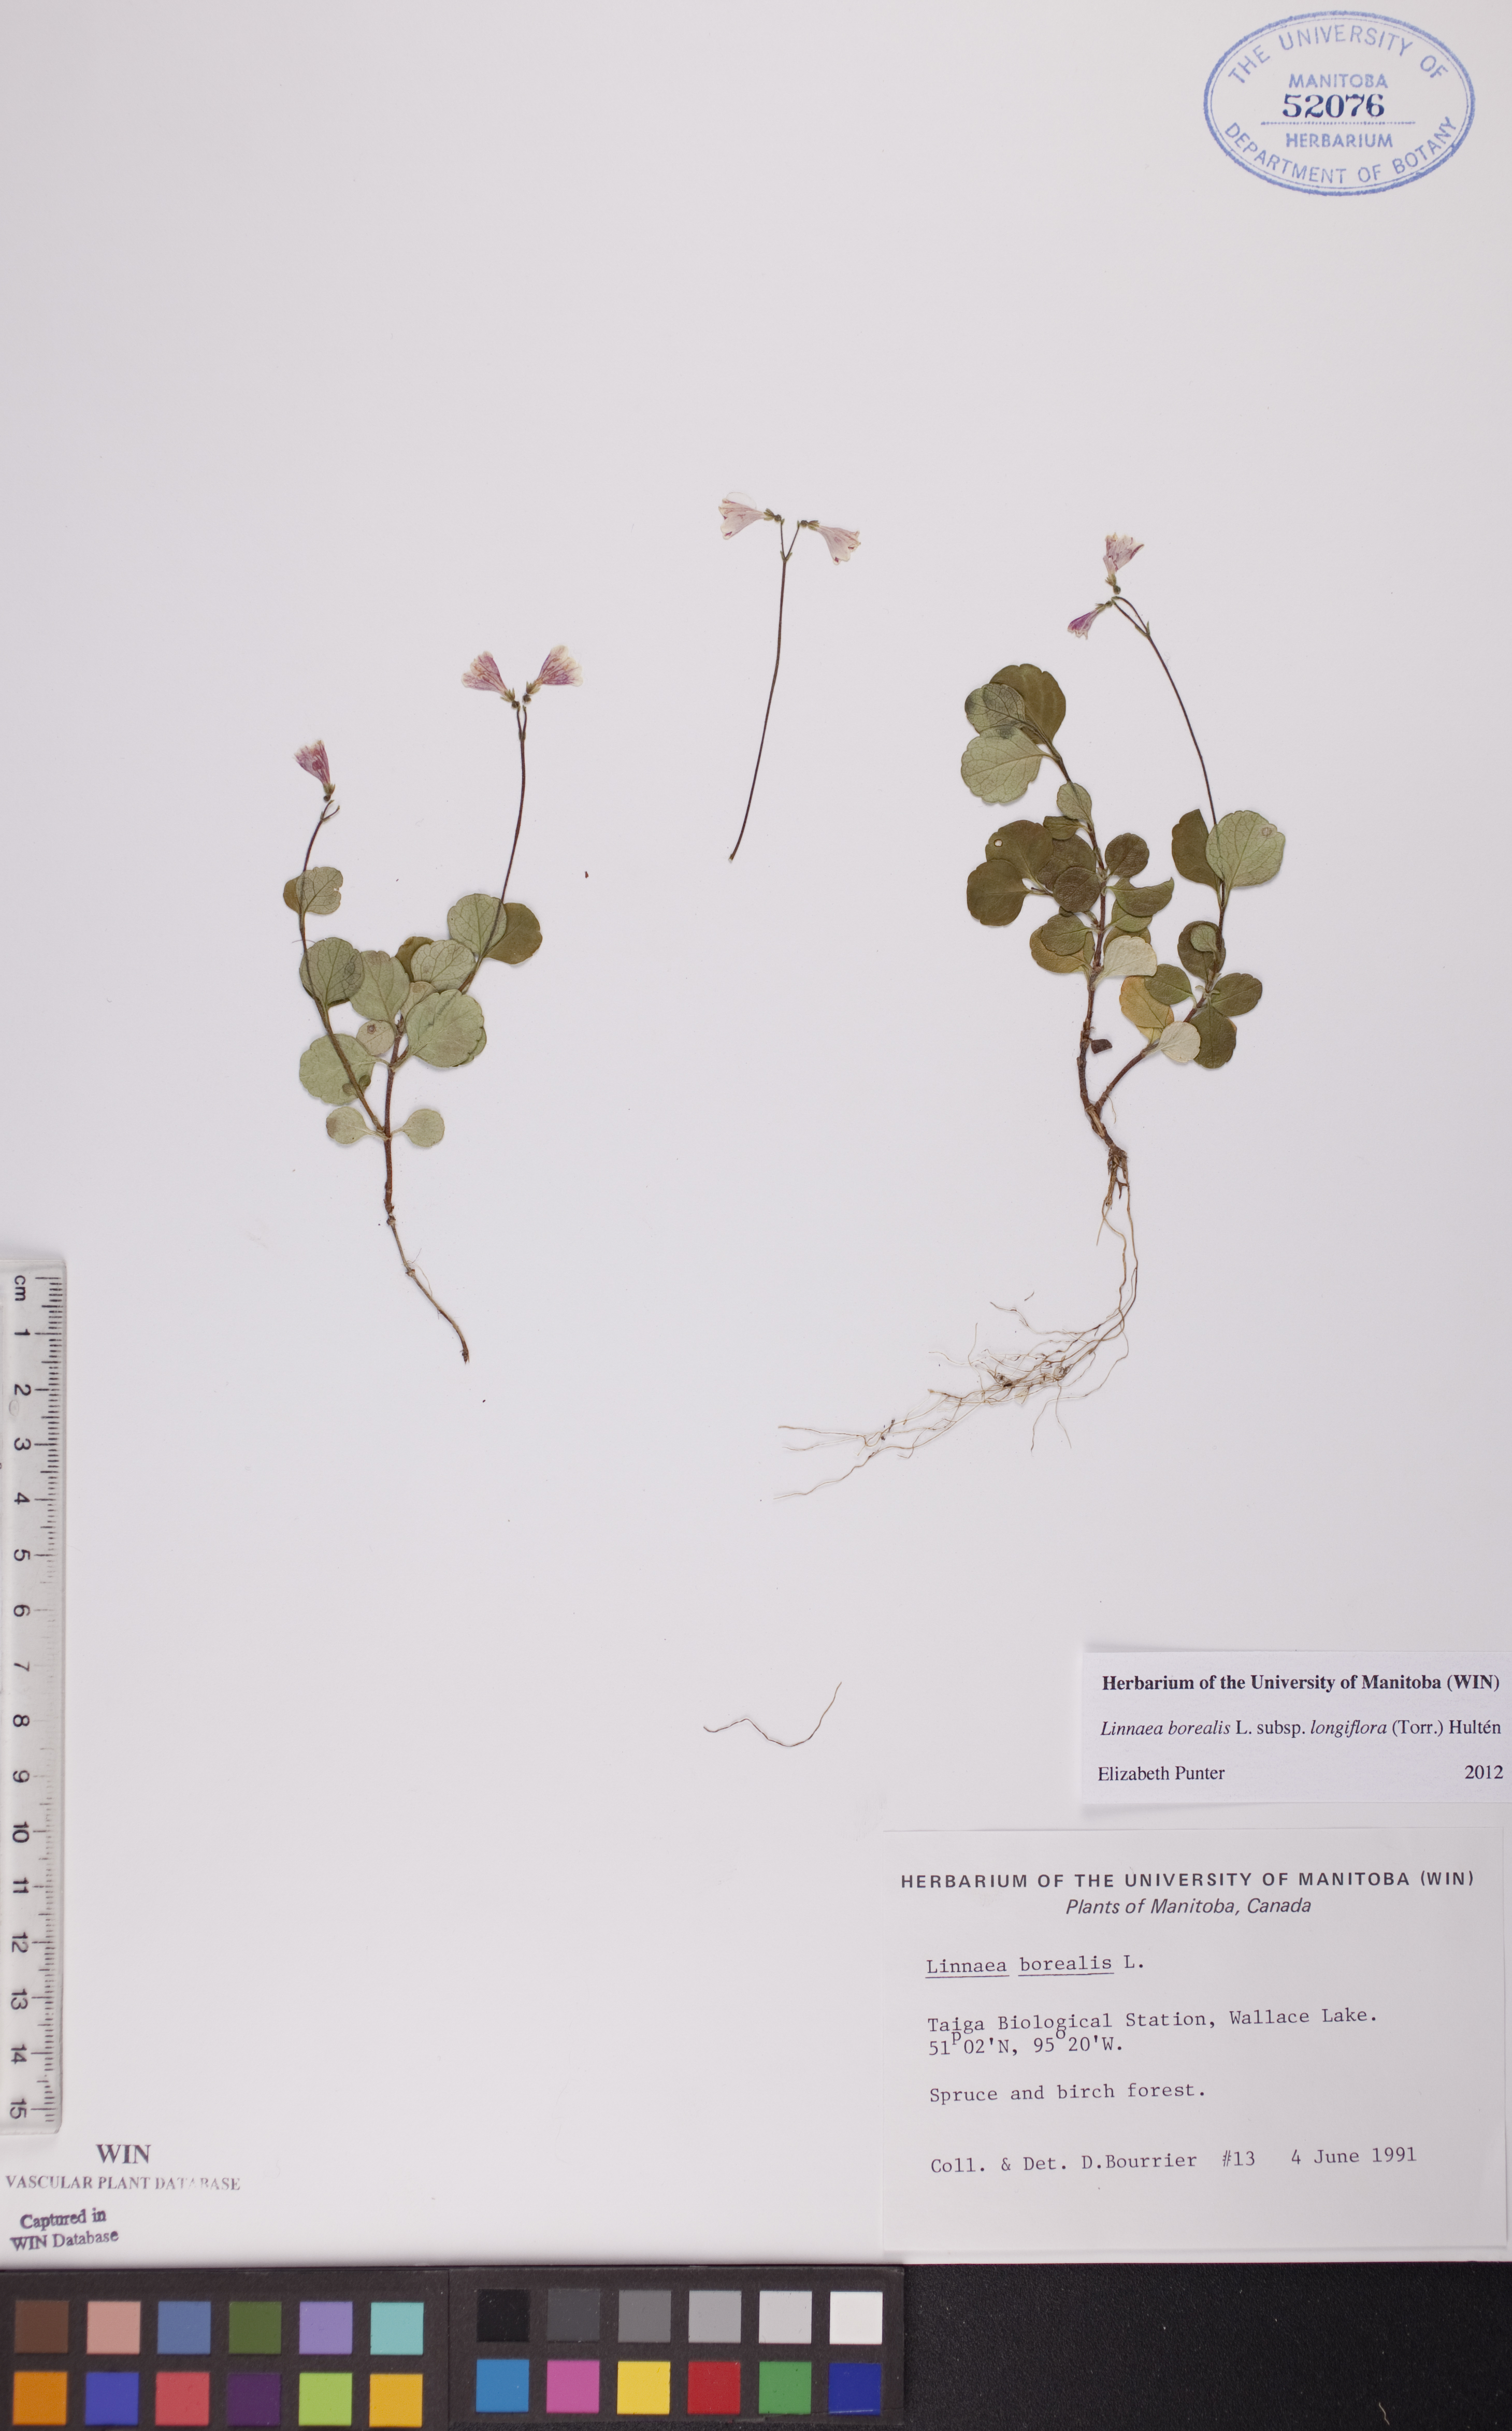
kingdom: Plantae
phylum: Tracheophyta
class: Magnoliopsida
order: Dipsacales
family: Caprifoliaceae
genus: Linnaea
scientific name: Linnaea borealis
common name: Twinflower
